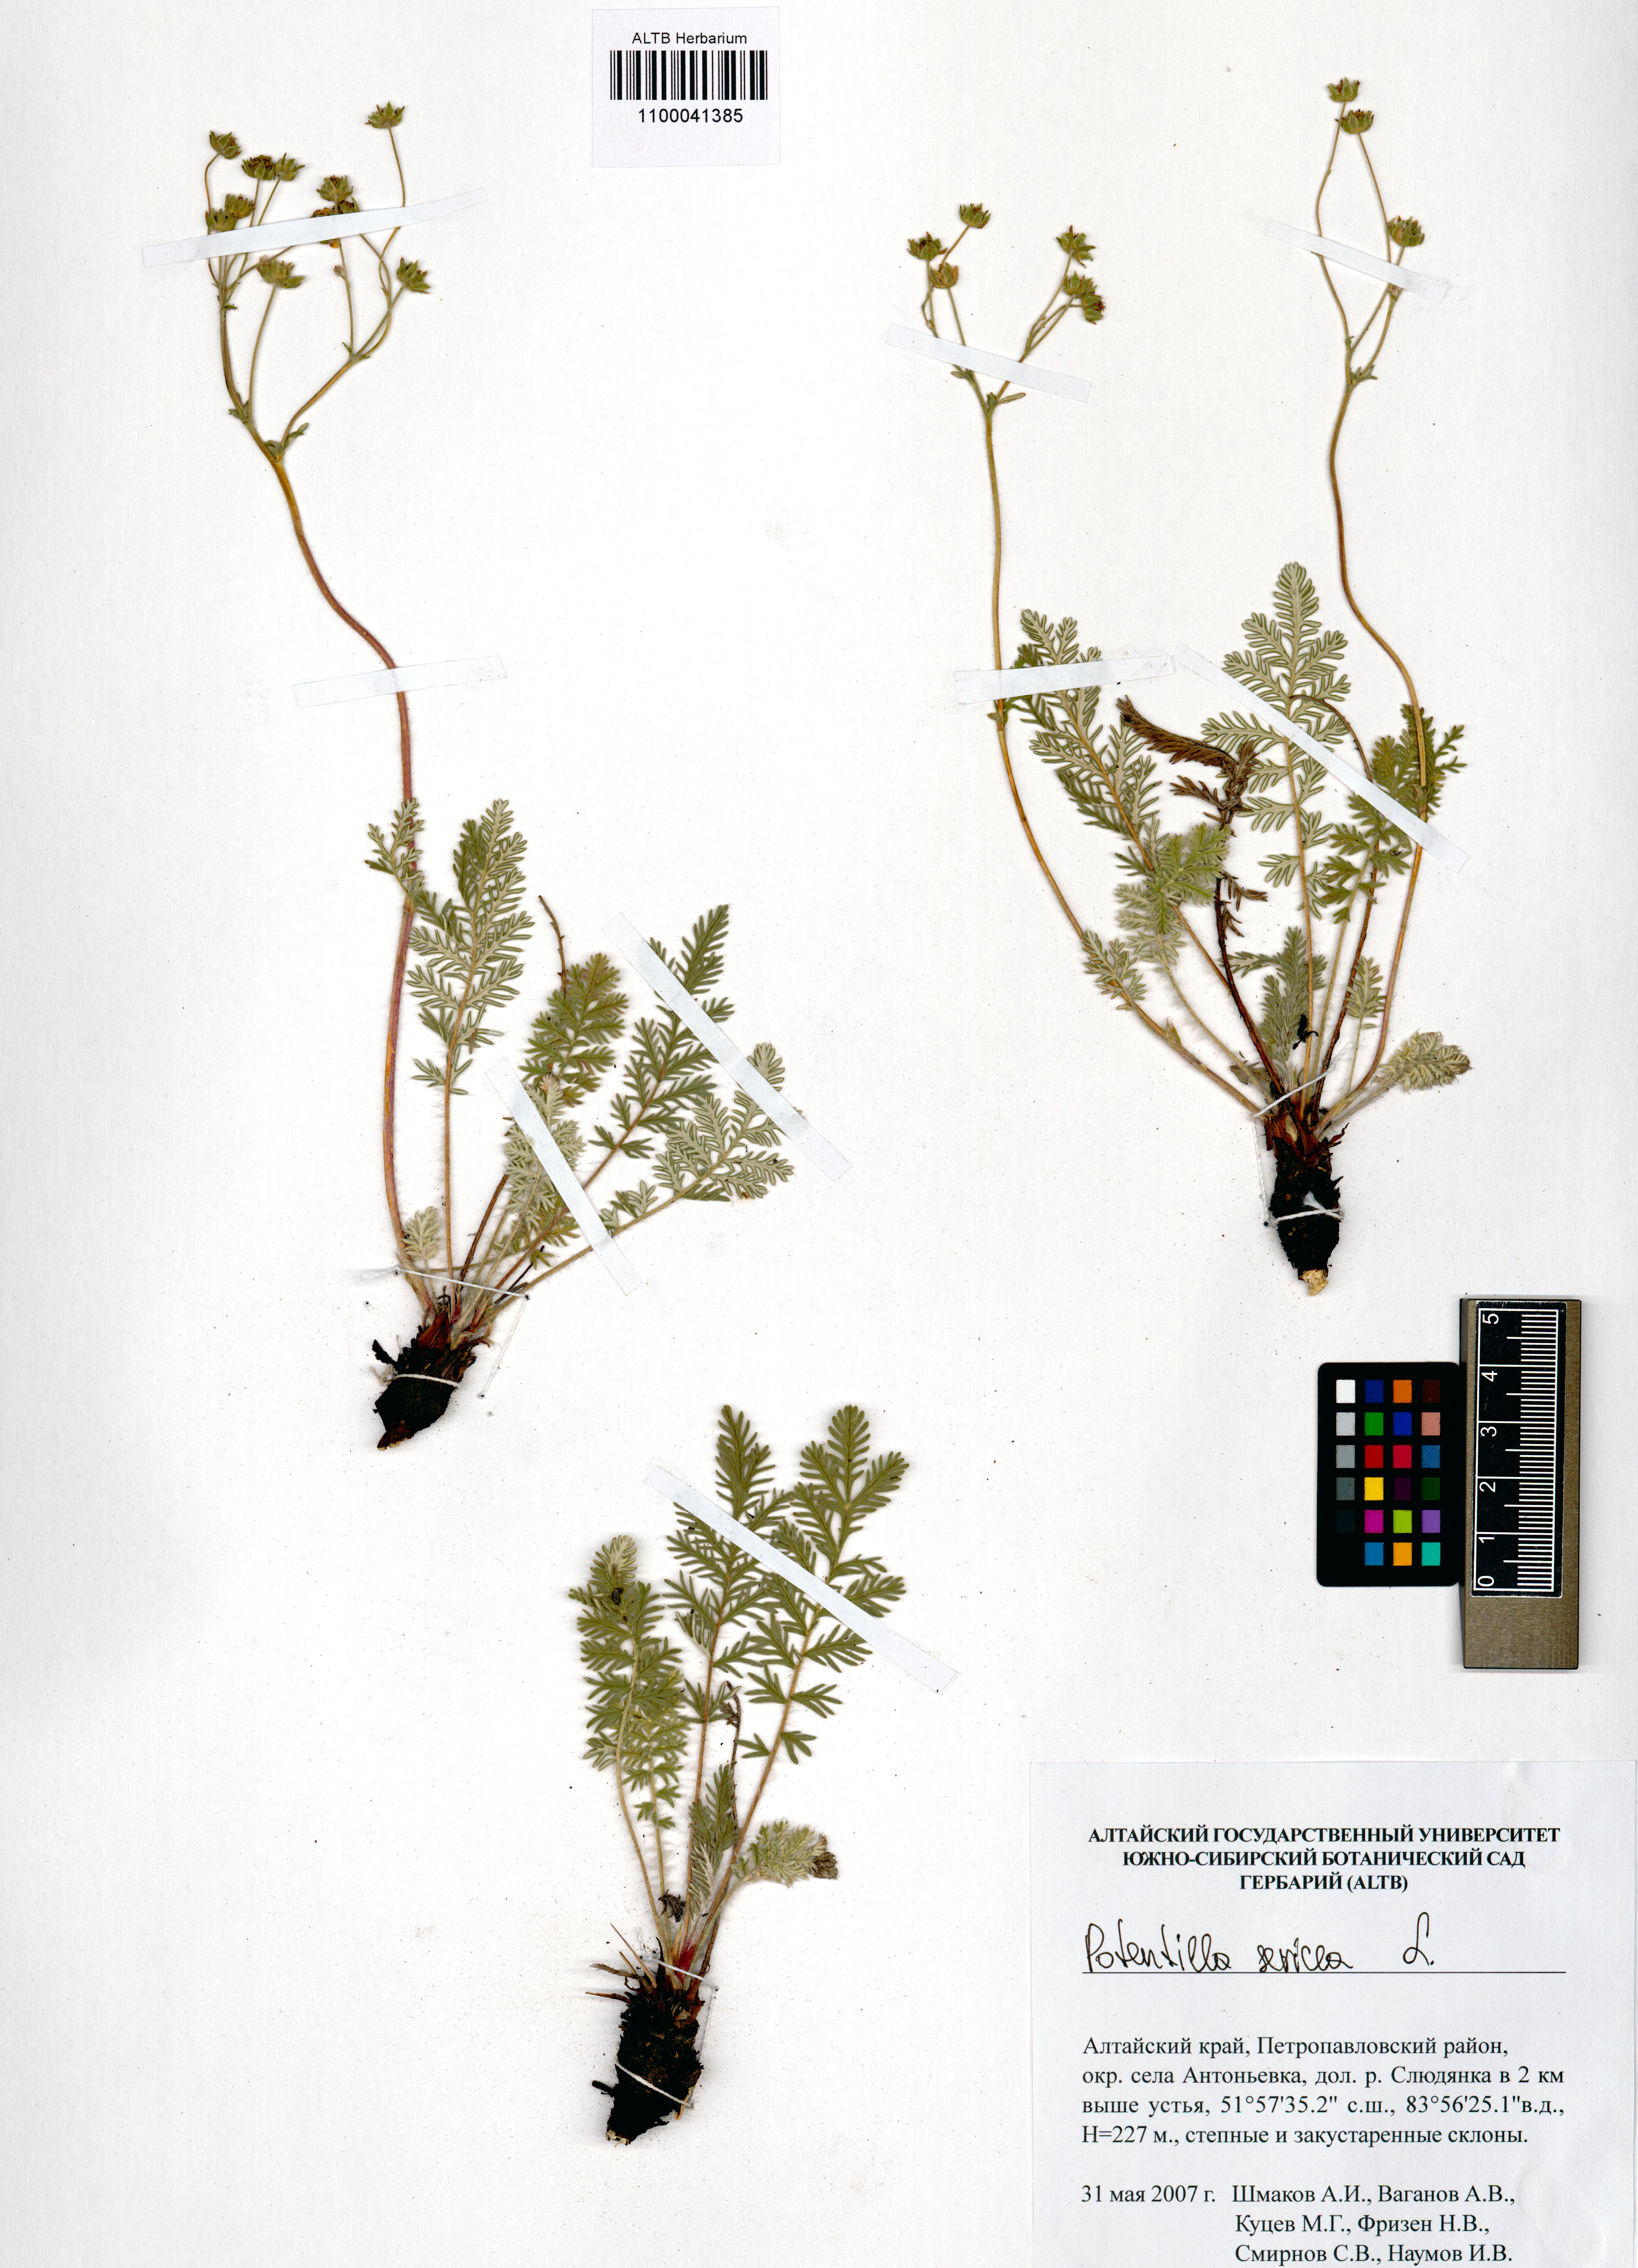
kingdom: Plantae
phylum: Tracheophyta
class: Magnoliopsida
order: Rosales
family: Rosaceae
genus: Potentilla
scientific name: Potentilla sericea
